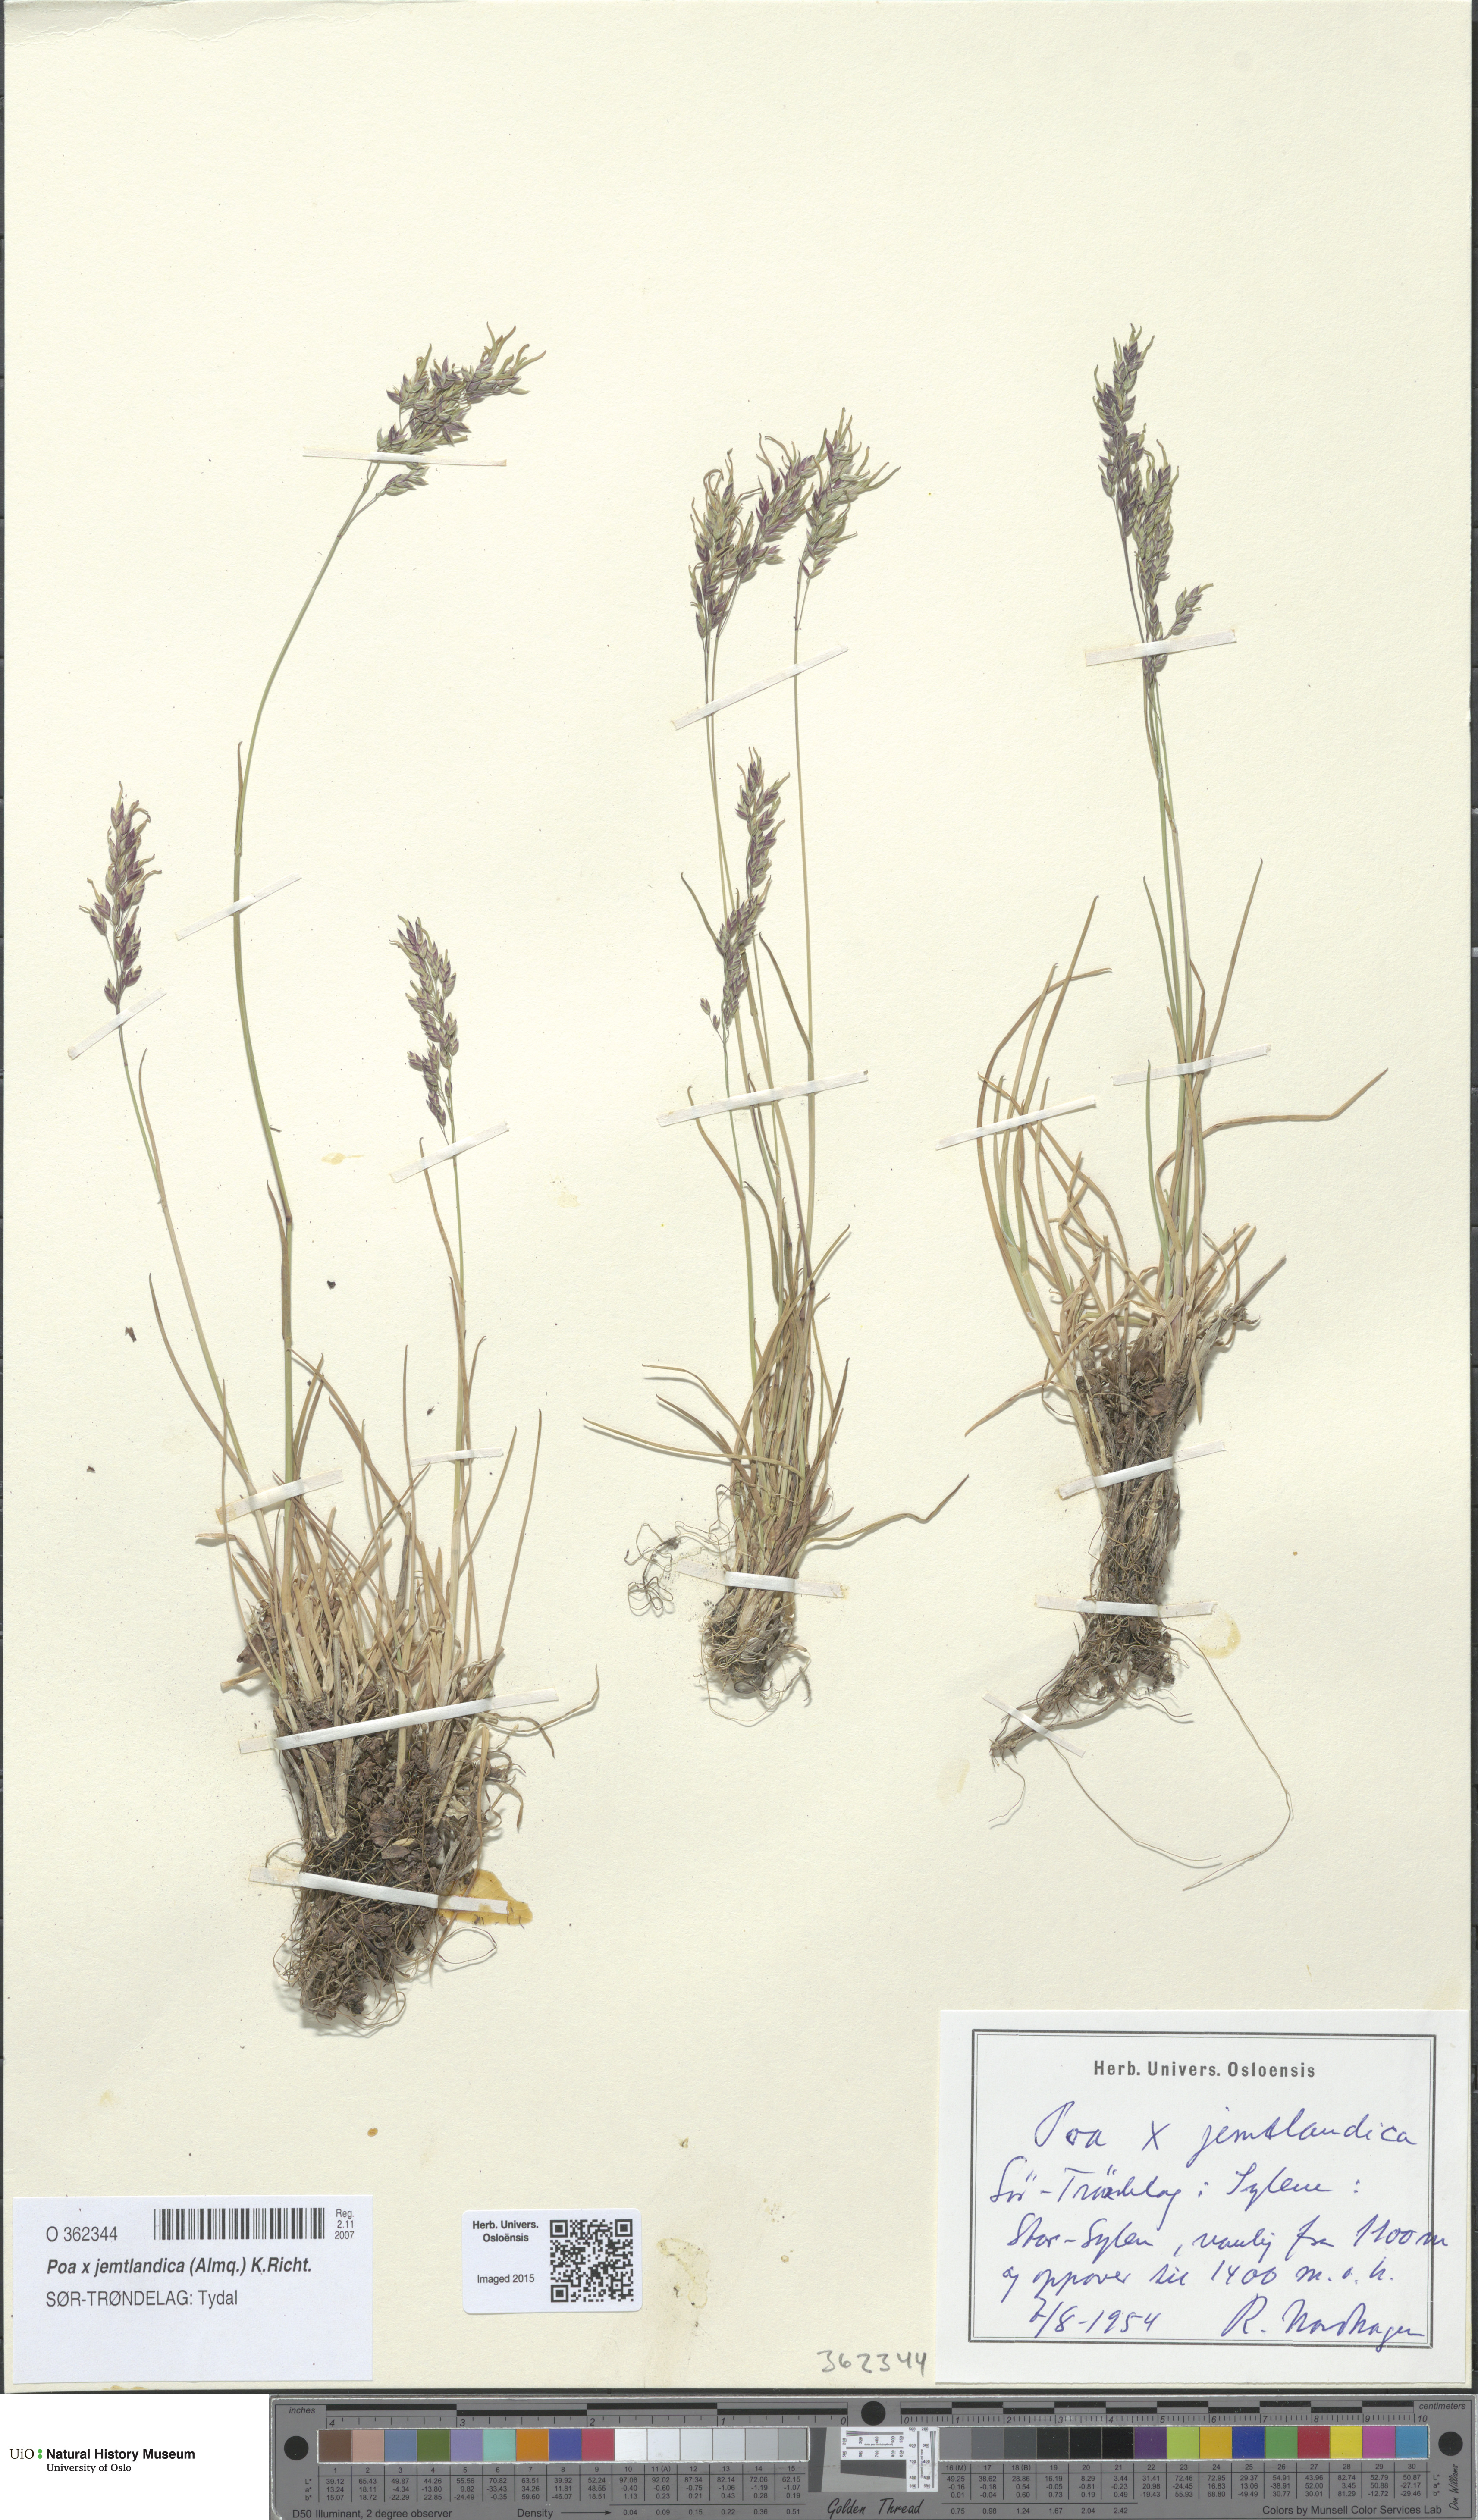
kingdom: Plantae
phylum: Tracheophyta
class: Liliopsida
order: Poales
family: Poaceae
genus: Poa
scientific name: Poa jemtlandica
